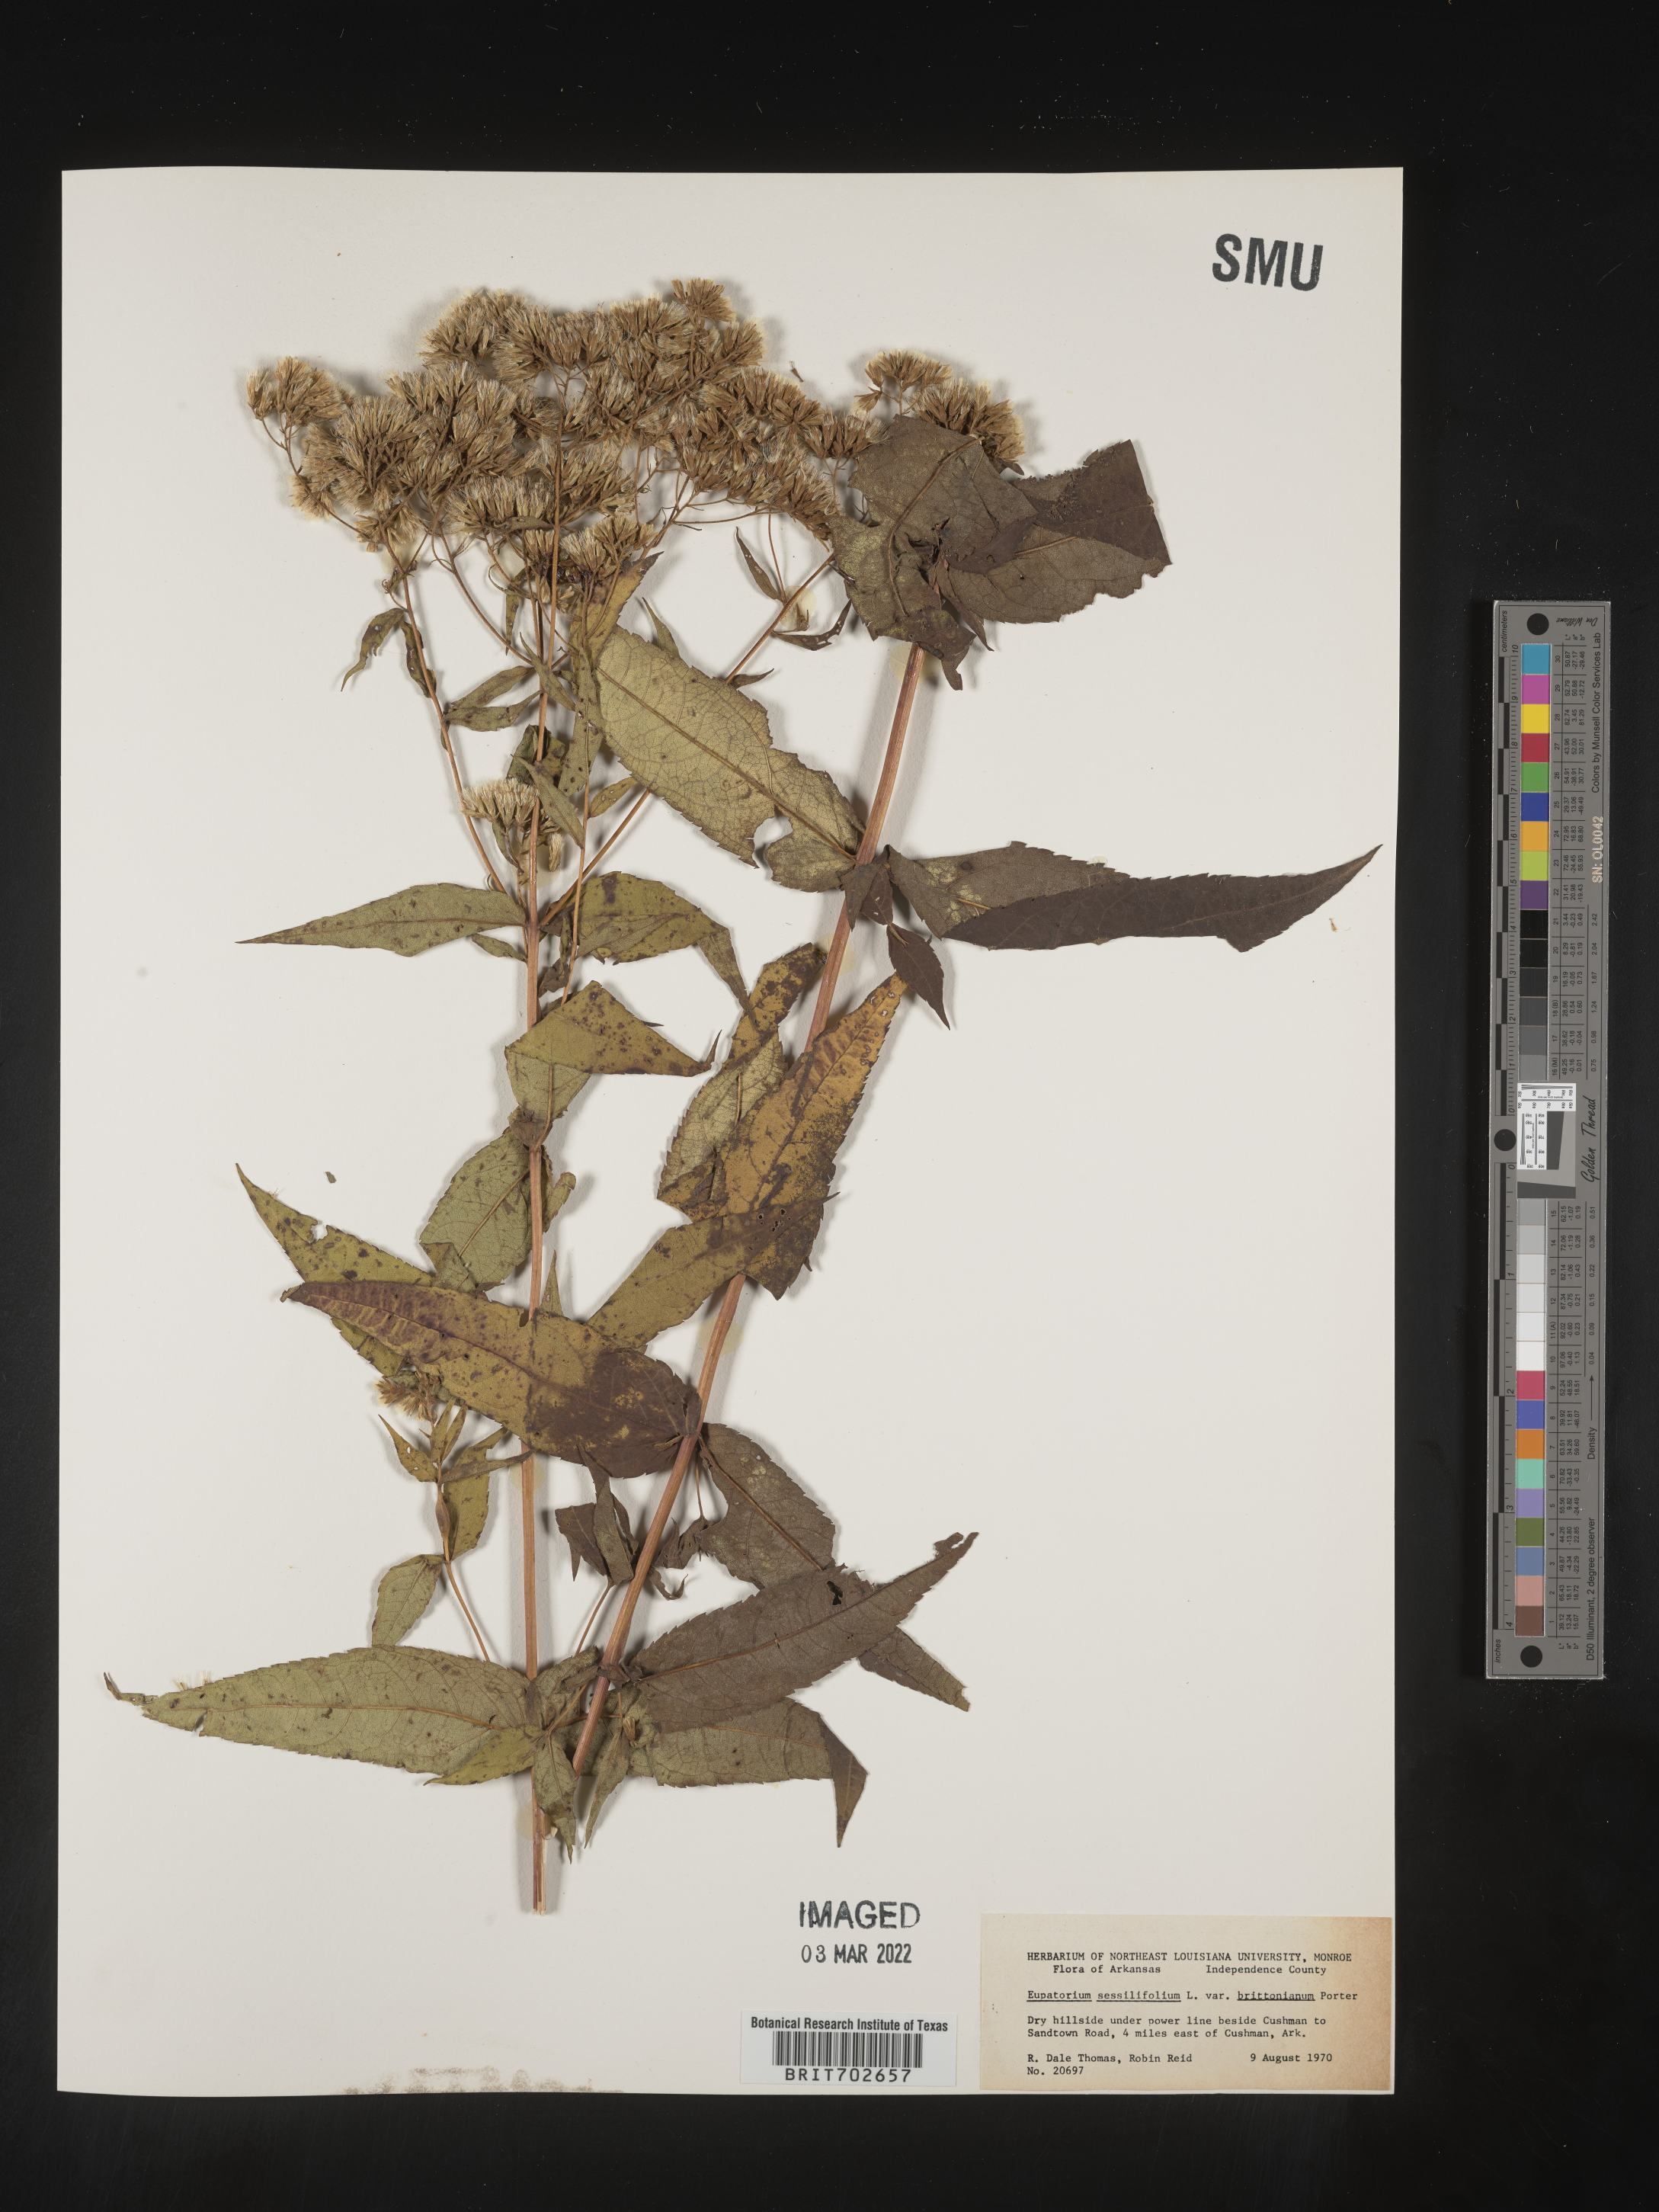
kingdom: Plantae
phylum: Tracheophyta
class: Magnoliopsida
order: Asterales
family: Asteraceae
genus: Eupatorium
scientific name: Eupatorium sessilifolium
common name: Upland boneset
